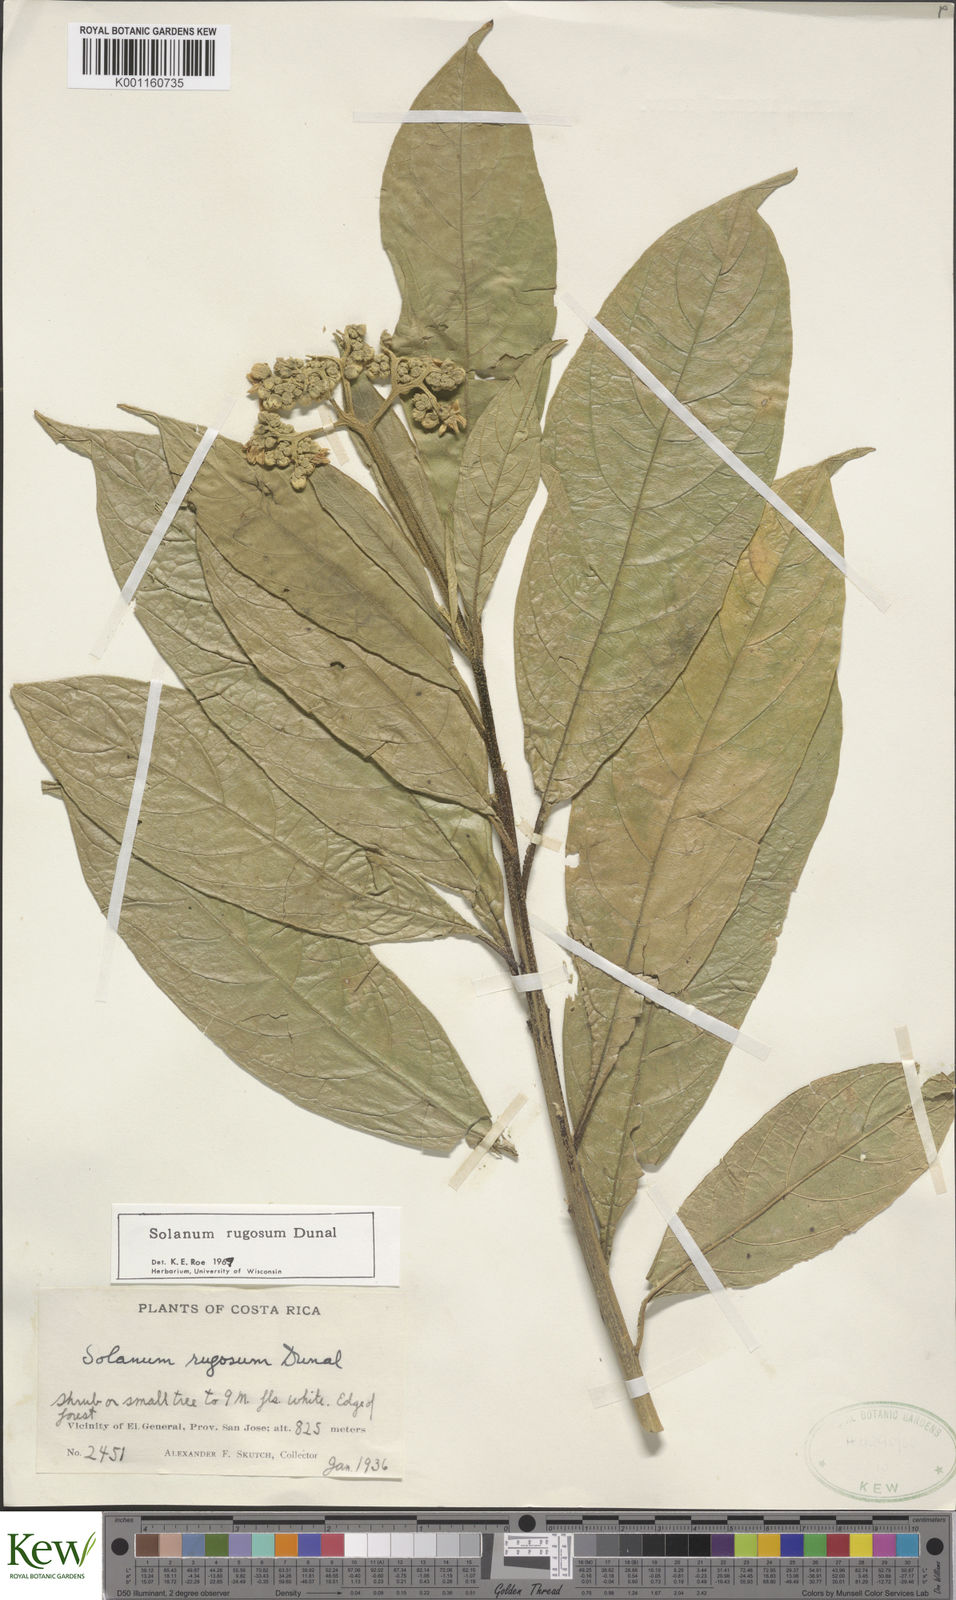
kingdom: Plantae
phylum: Tracheophyta
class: Magnoliopsida
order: Solanales
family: Solanaceae
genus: Solanum
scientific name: Solanum rugosum
